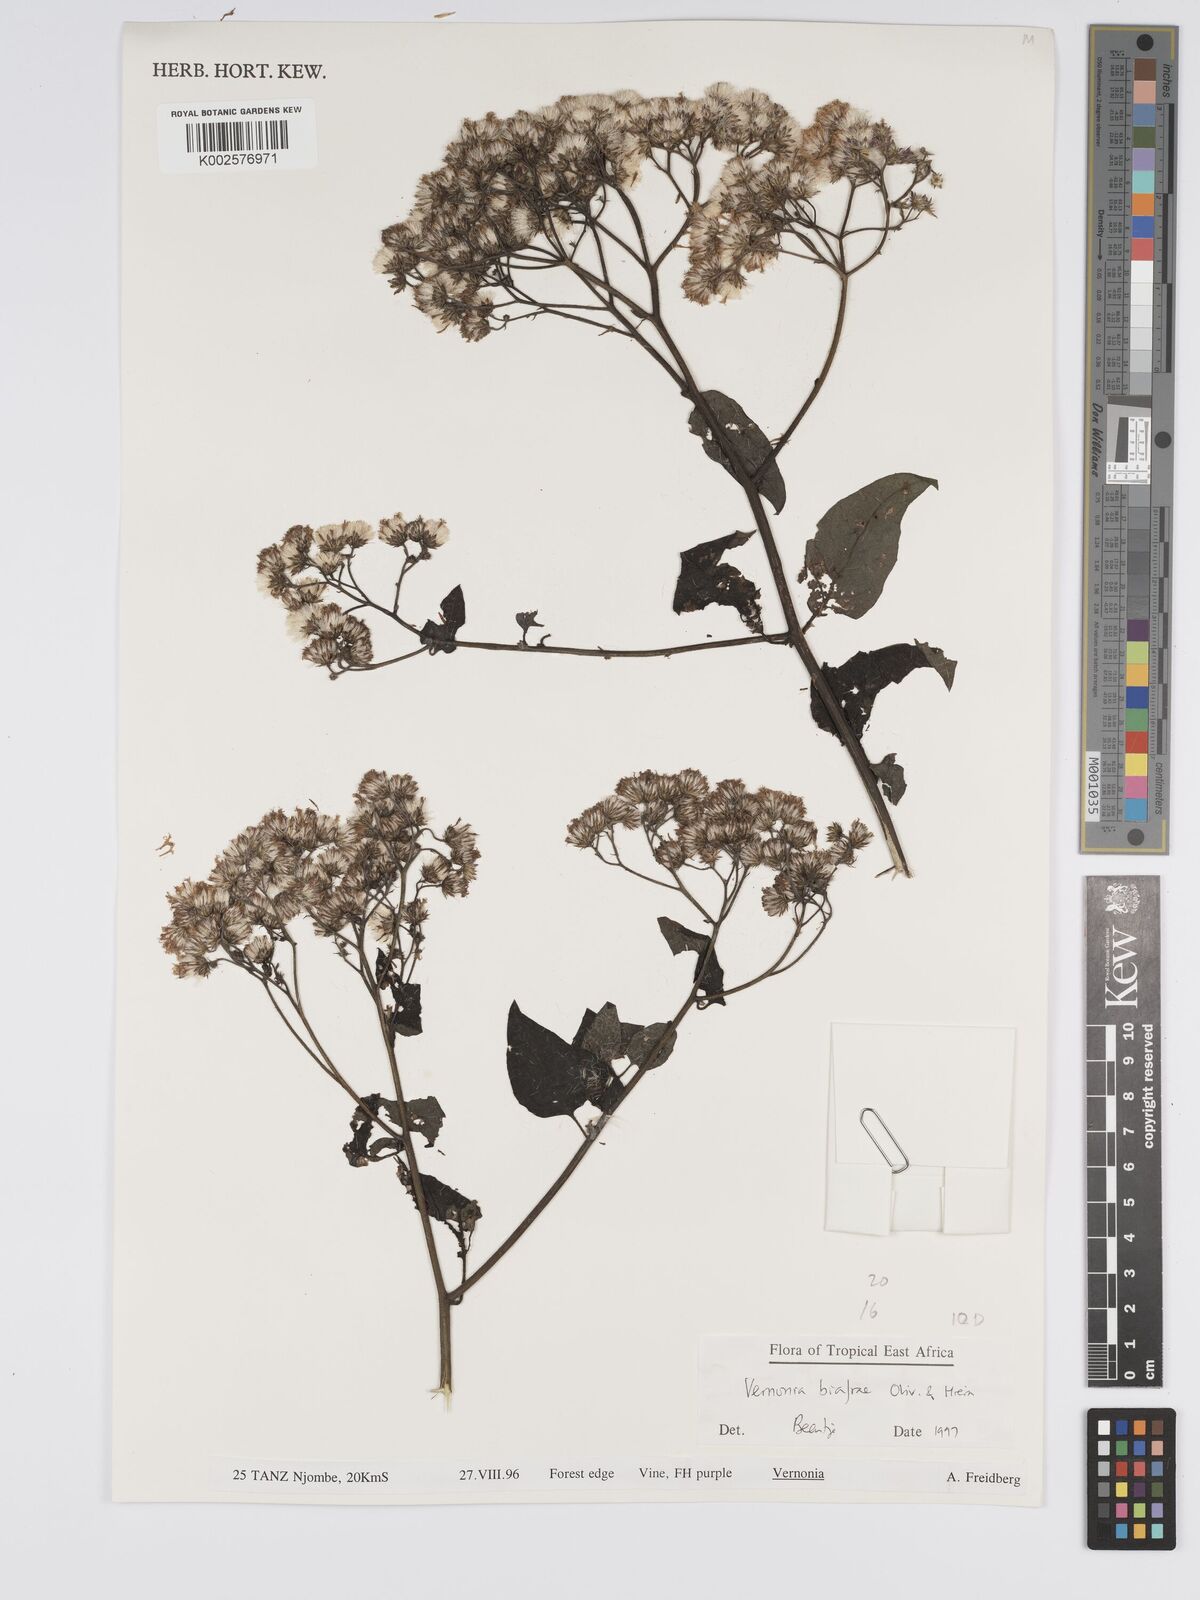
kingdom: Plantae
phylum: Tracheophyta
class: Magnoliopsida
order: Asterales
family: Asteraceae
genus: Distephanus
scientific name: Distephanus biafrae
